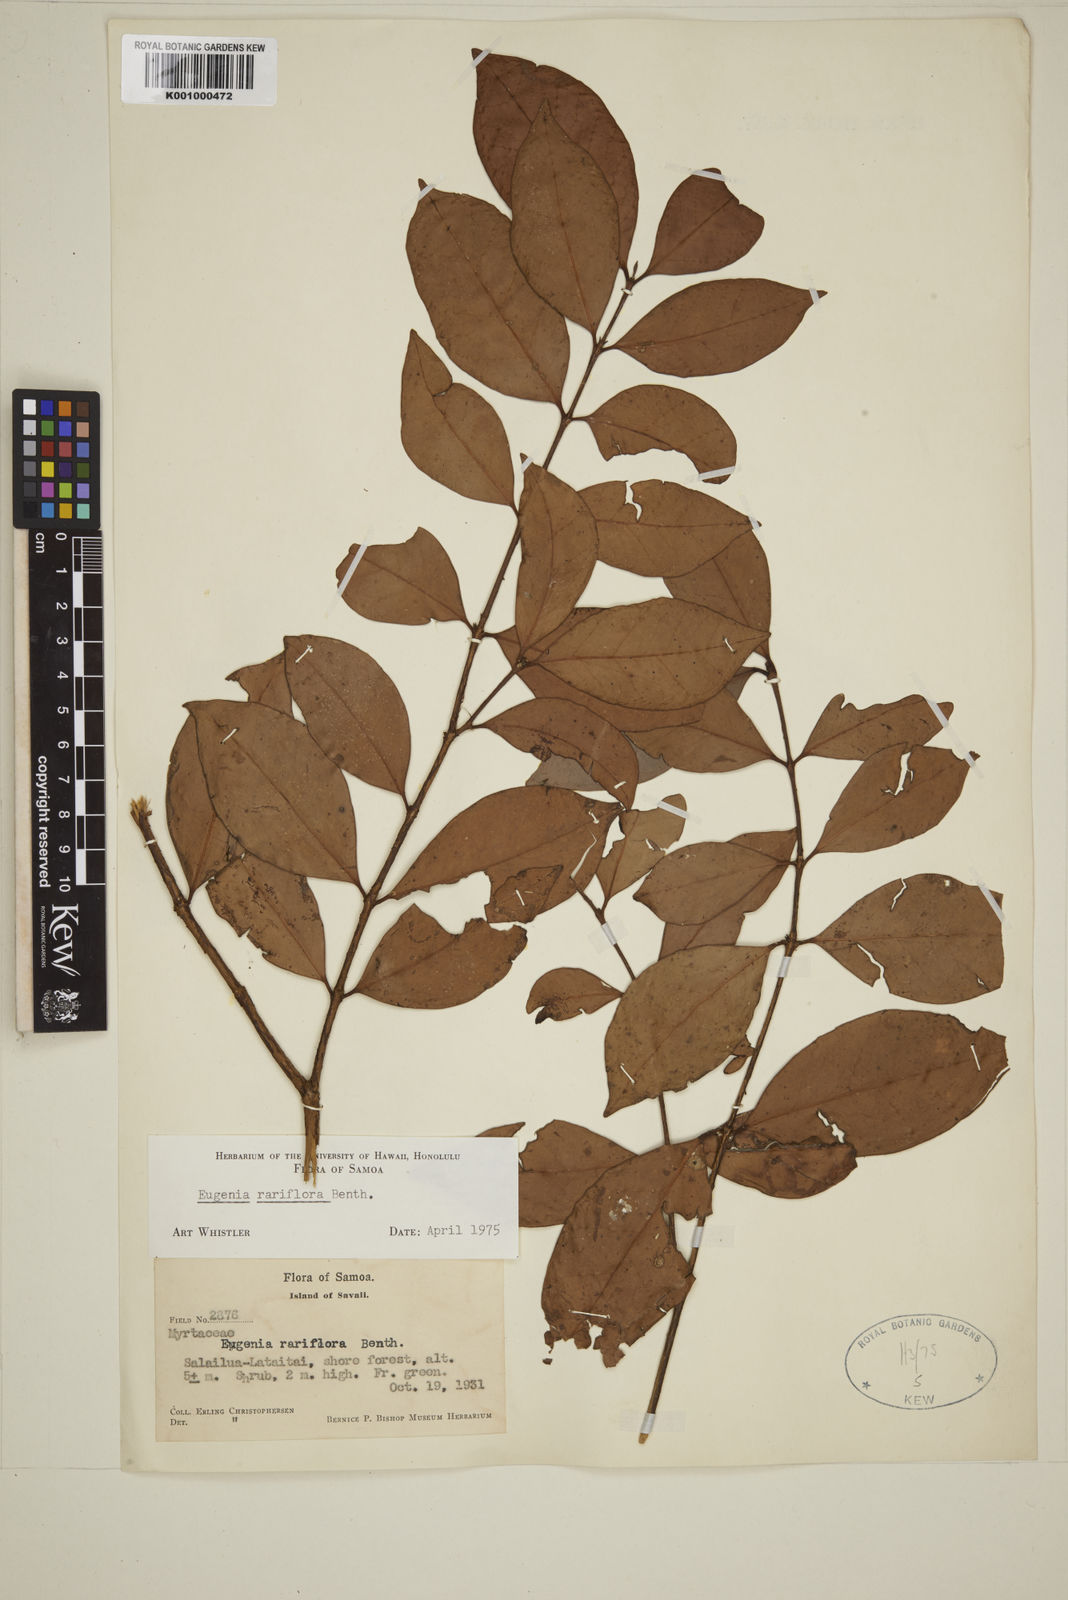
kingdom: Plantae
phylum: Tracheophyta
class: Magnoliopsida
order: Myrtales
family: Myrtaceae
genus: Eugenia
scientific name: Eugenia reinwardtiana
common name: Cedar bay-cherry
